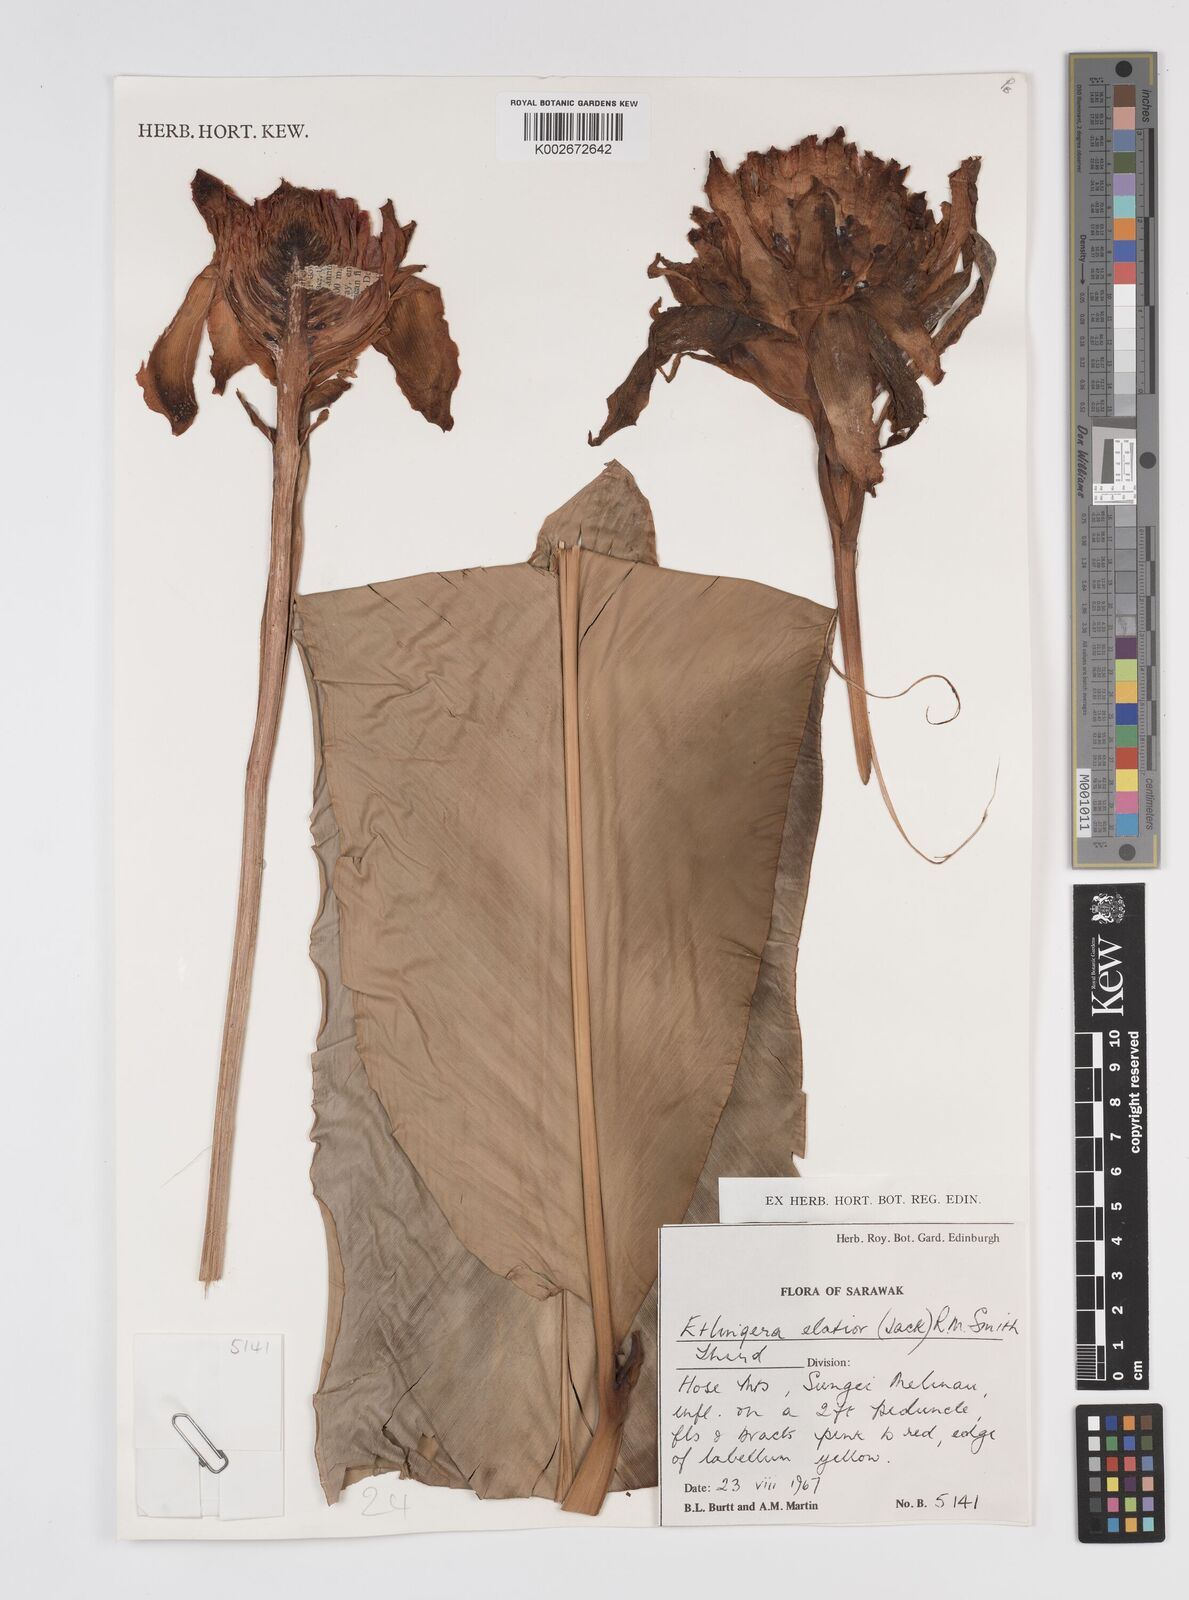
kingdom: Plantae
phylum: Tracheophyta
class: Liliopsida
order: Zingiberales
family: Zingiberaceae
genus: Etlingera
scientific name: Etlingera elatior
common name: Philippine waxflower
